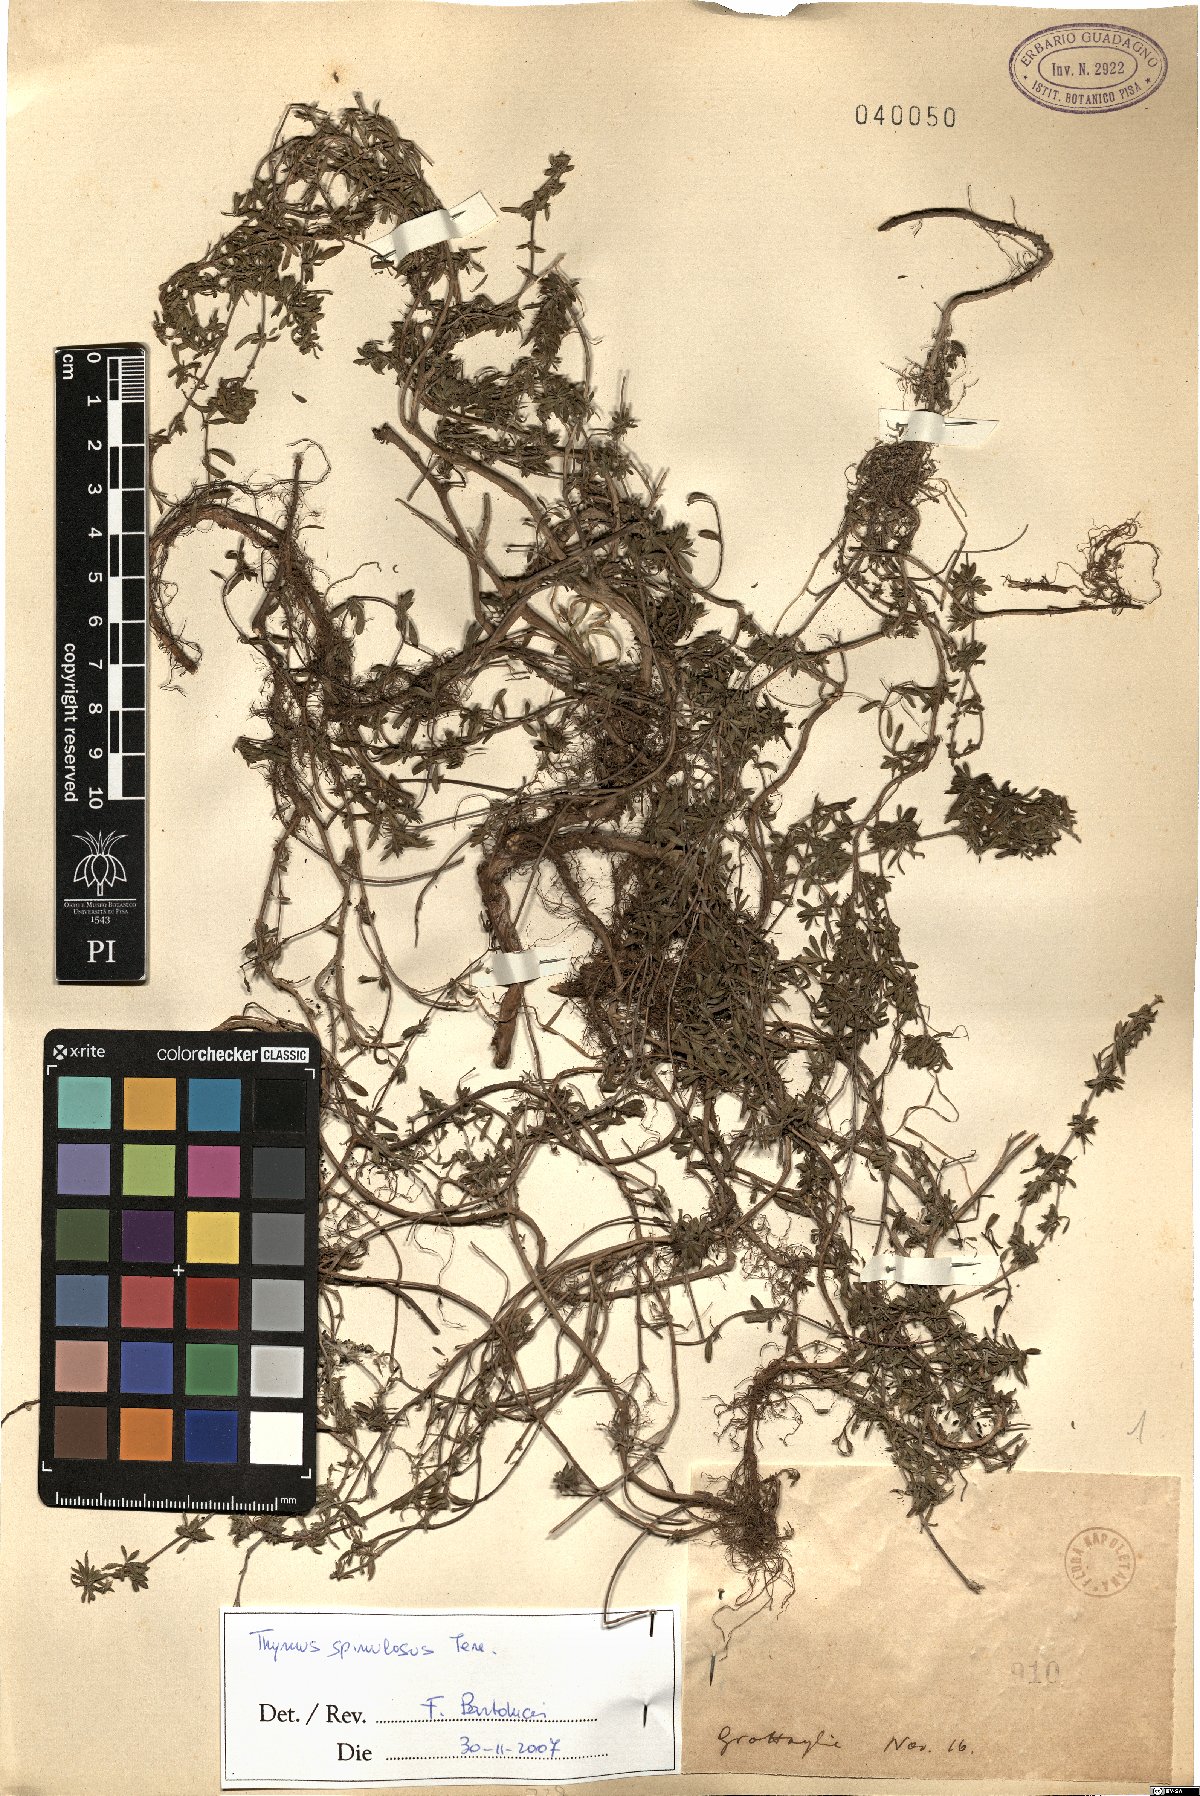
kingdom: Plantae
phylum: Tracheophyta
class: Magnoliopsida
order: Lamiales
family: Lamiaceae
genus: Thymus
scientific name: Thymus spinulosus
